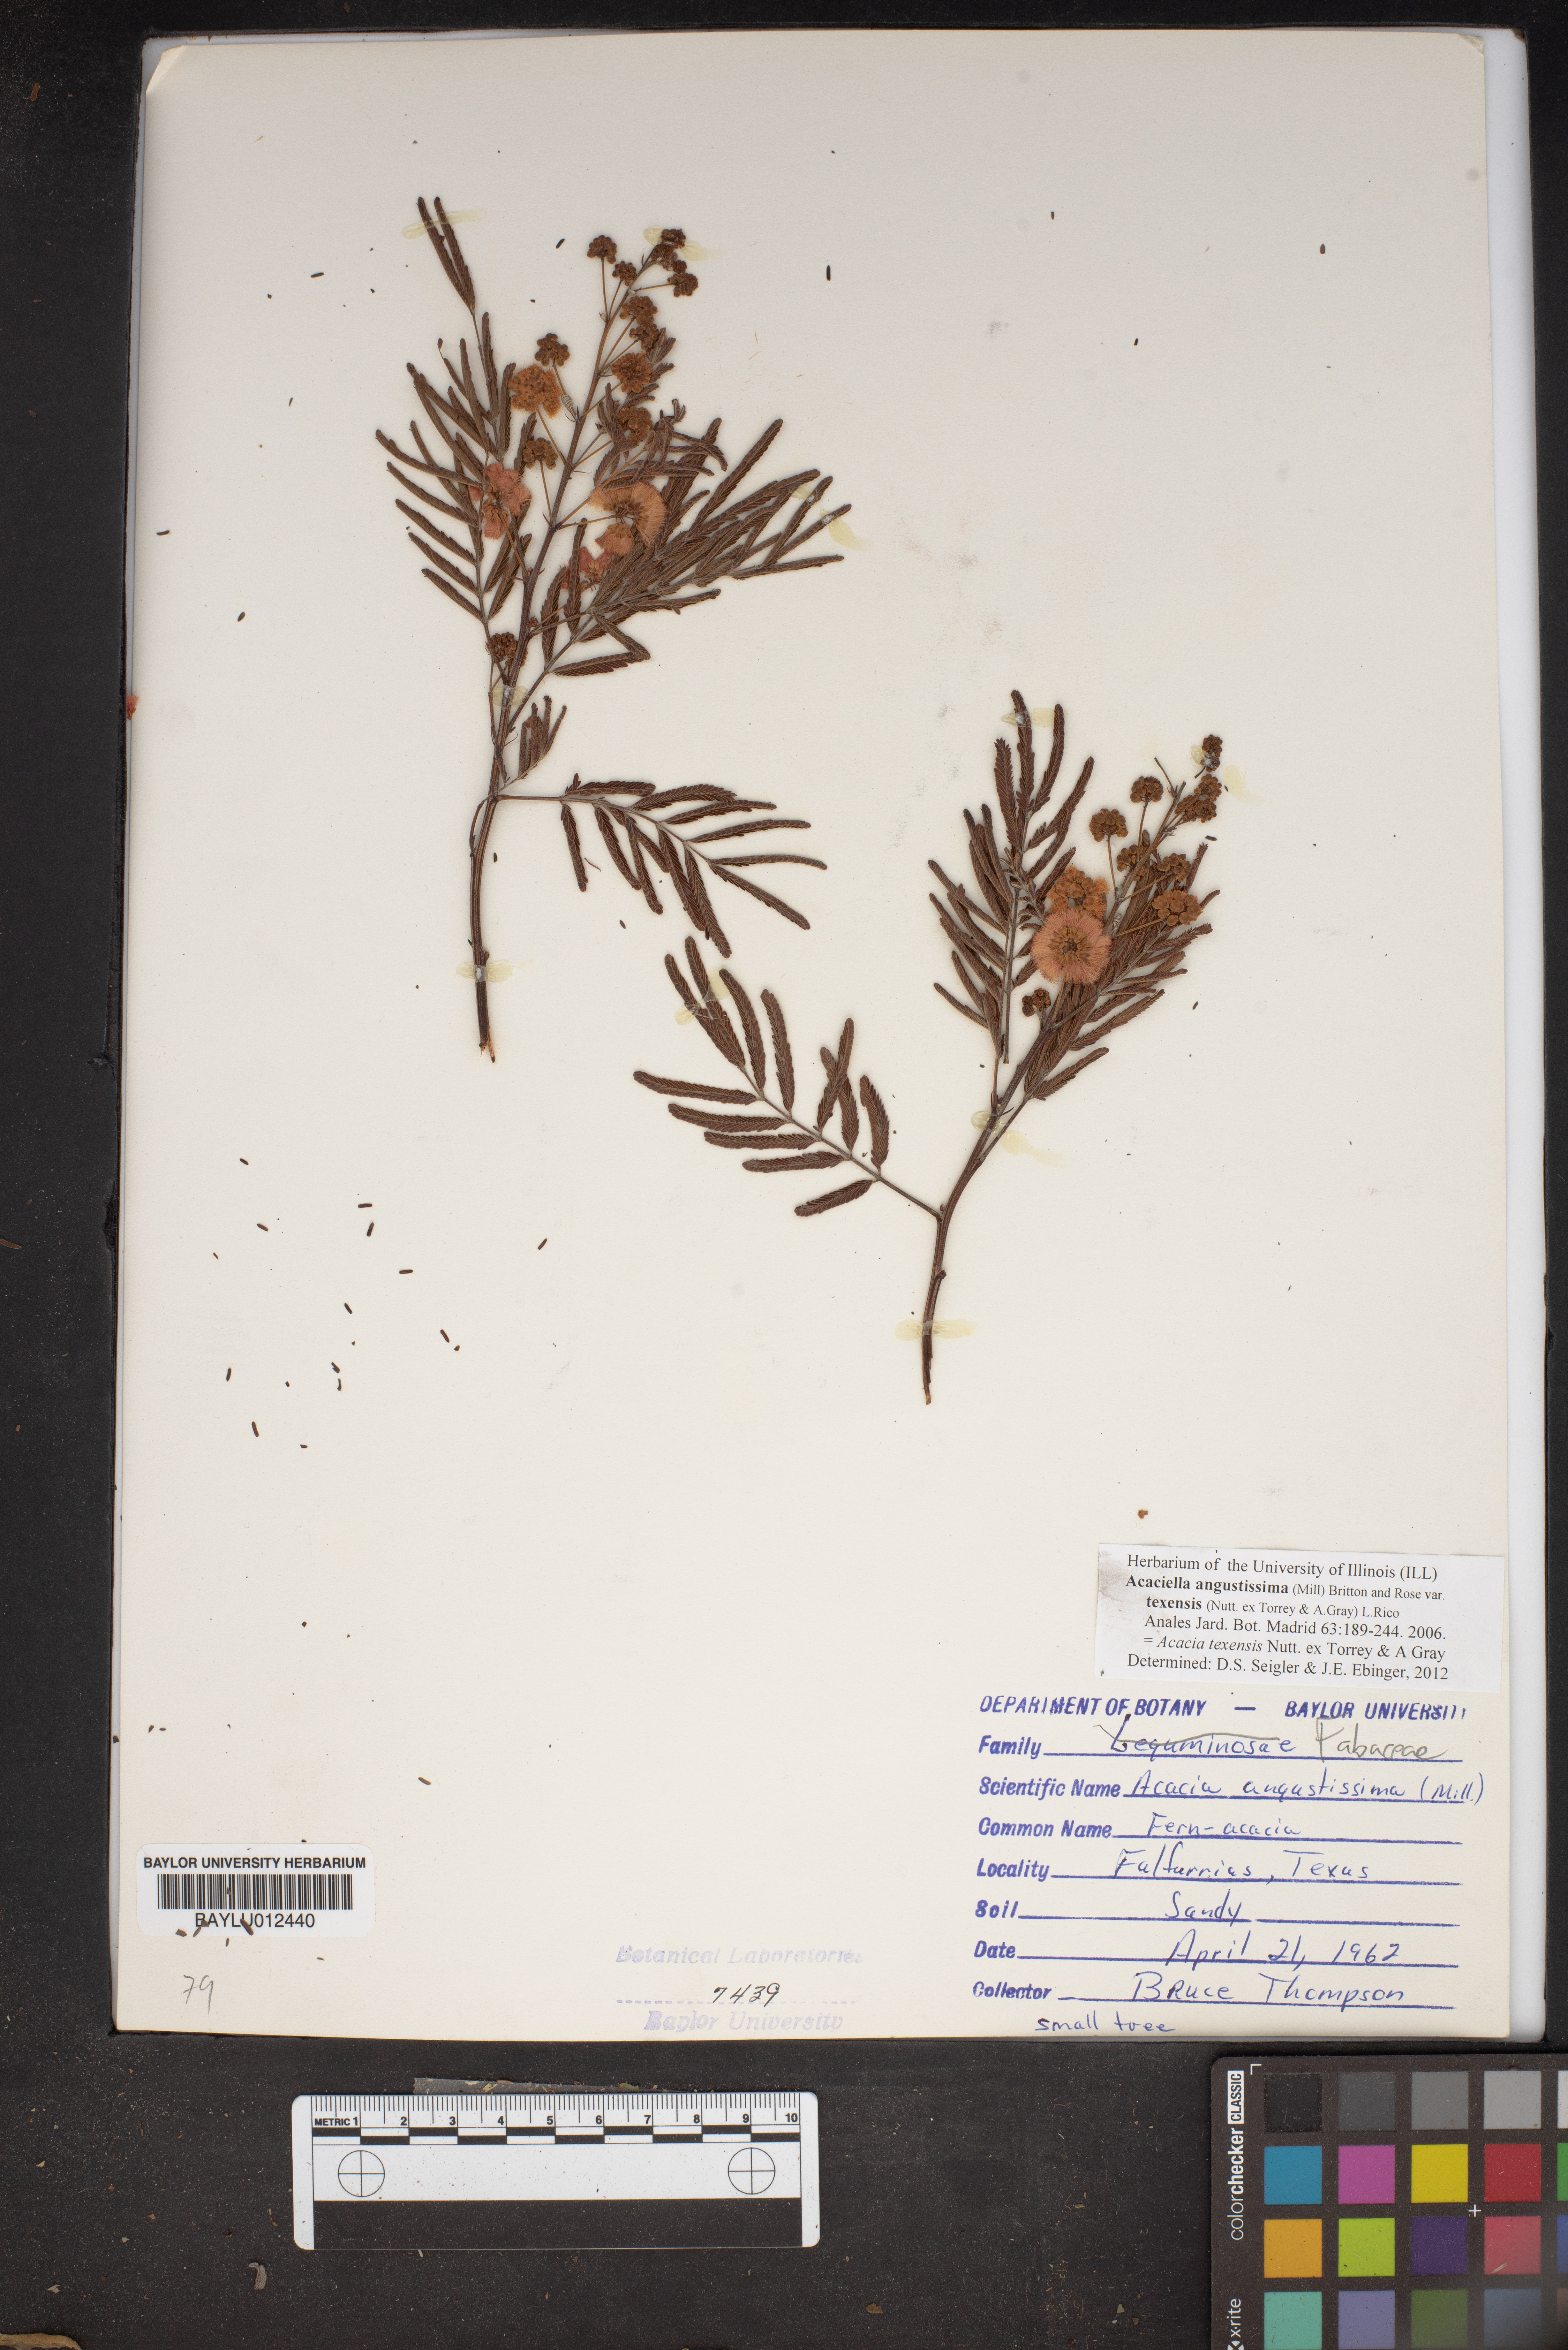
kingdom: Plantae
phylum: Tracheophyta
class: Magnoliopsida
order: Fabales
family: Fabaceae
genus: Acaciella
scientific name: Acaciella angustissima
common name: Prairie acacia
